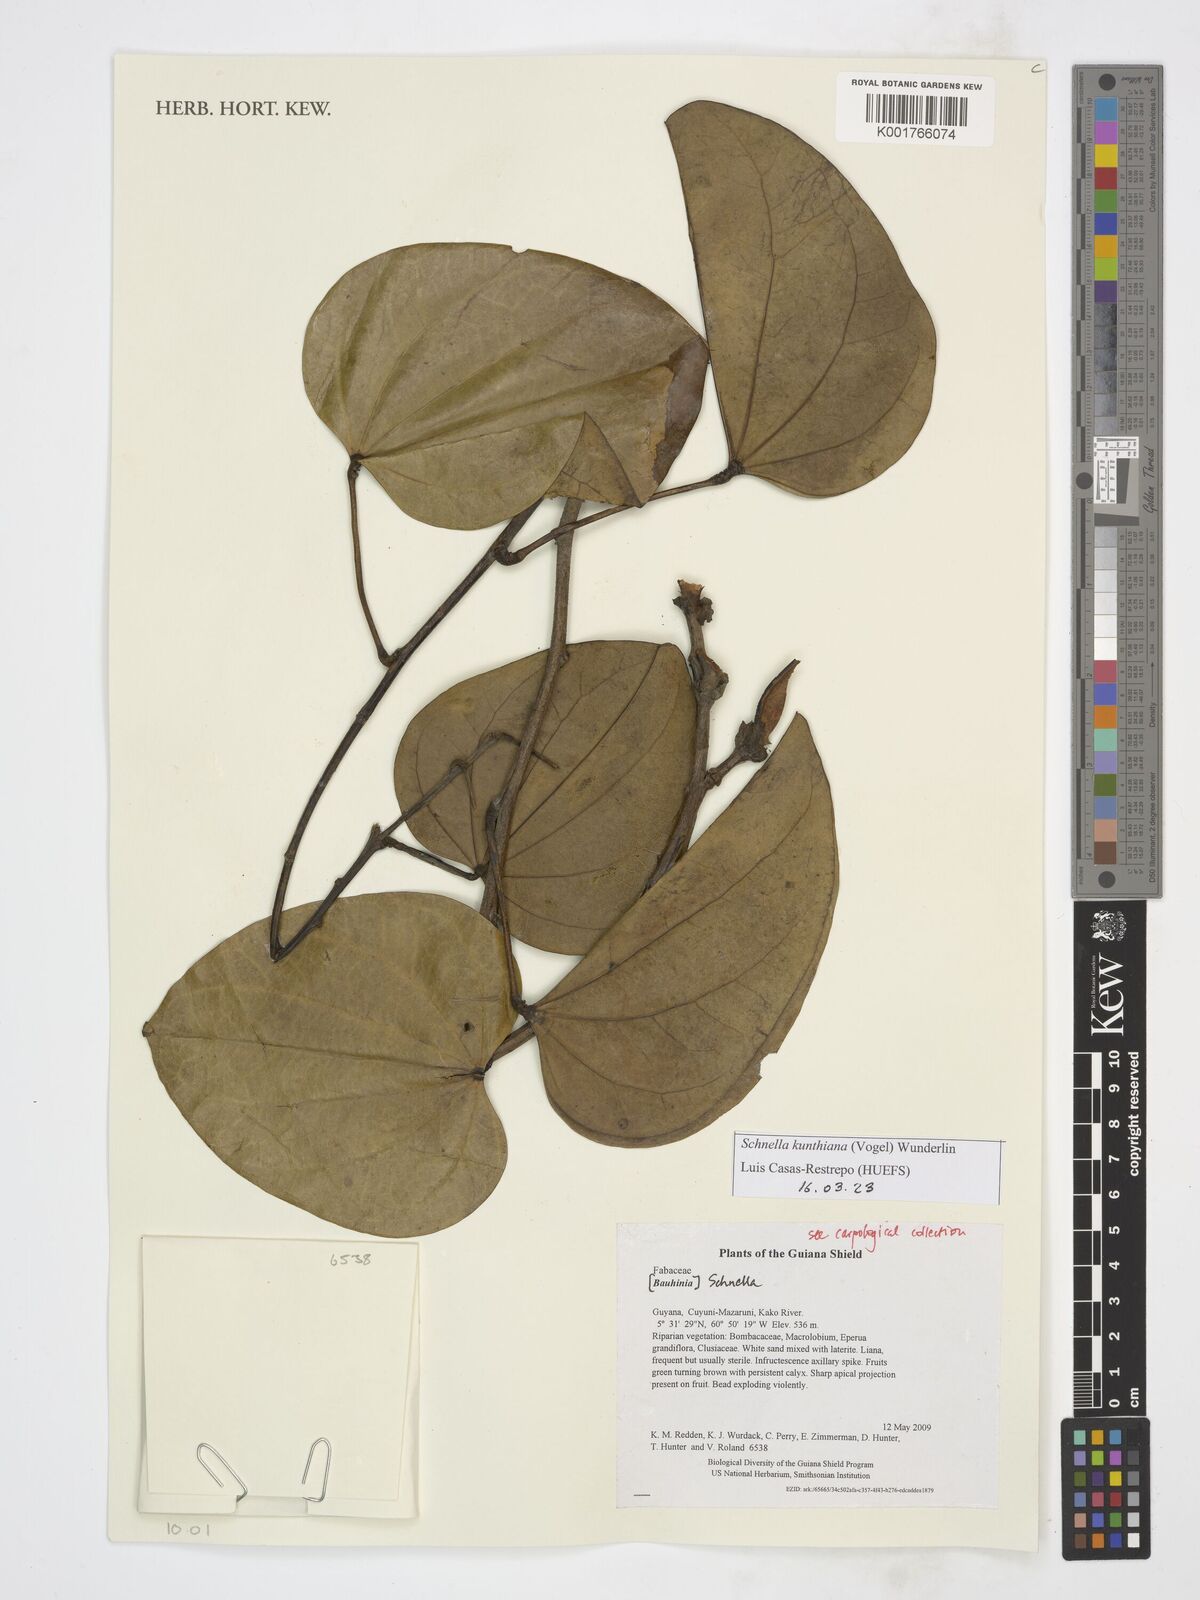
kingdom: Plantae
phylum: Tracheophyta
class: Magnoliopsida
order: Fabales
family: Fabaceae
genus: Schnella
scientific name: Schnella kunthiana
